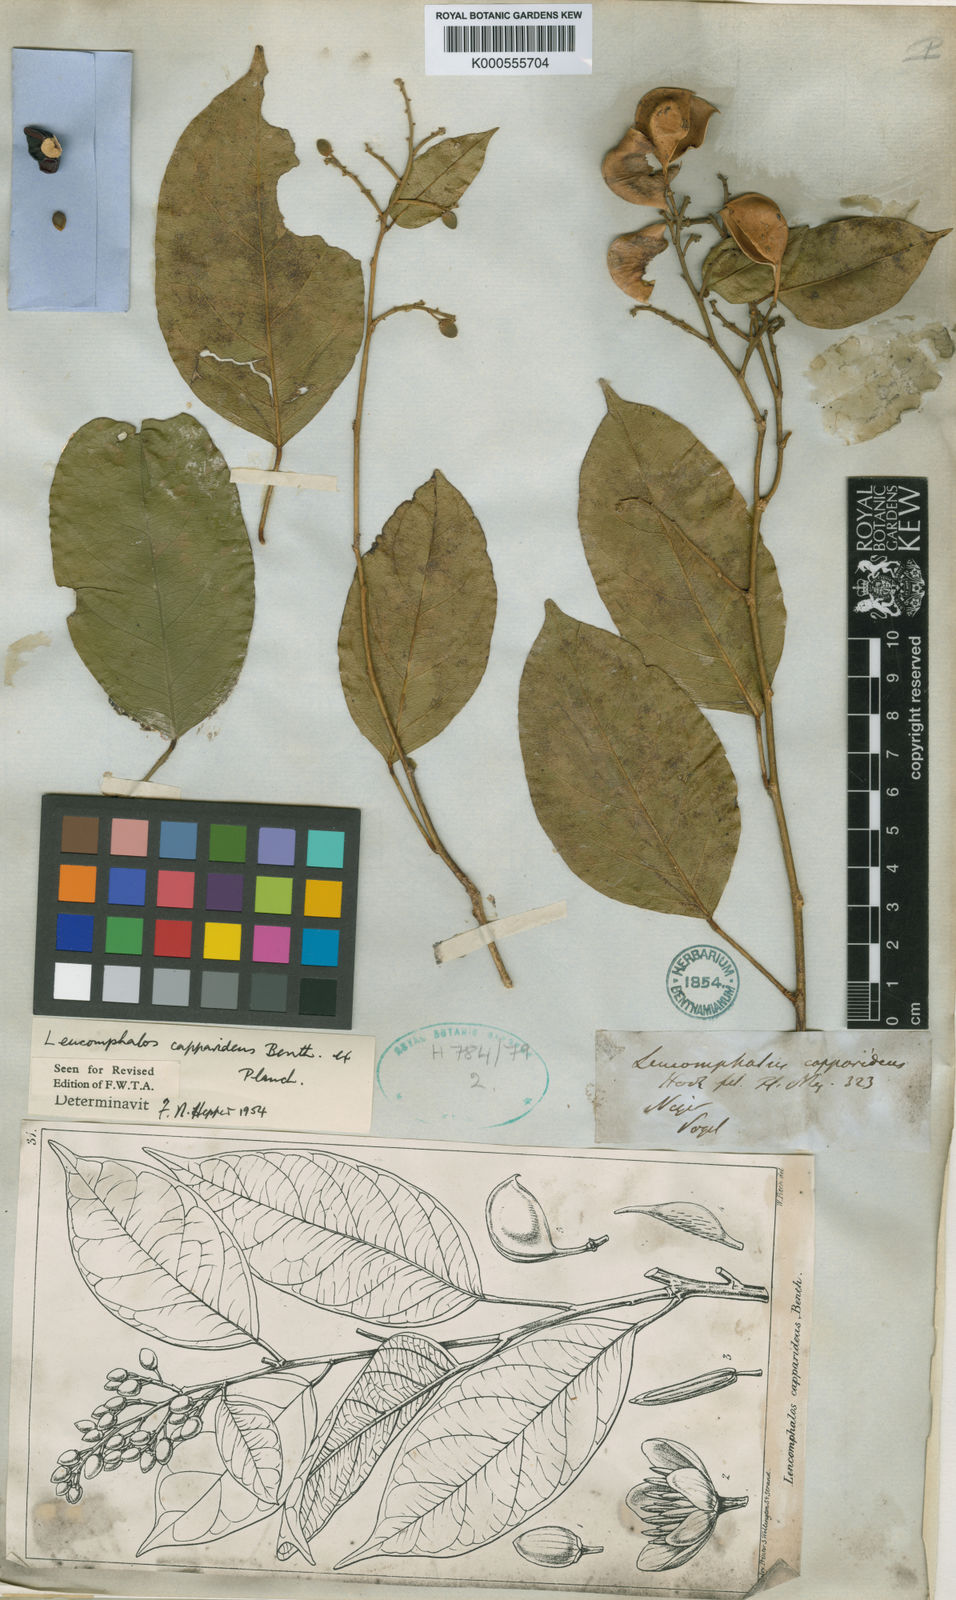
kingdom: Plantae
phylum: Tracheophyta
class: Magnoliopsida
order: Fabales
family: Fabaceae
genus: Leucomphalos
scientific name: Leucomphalos
